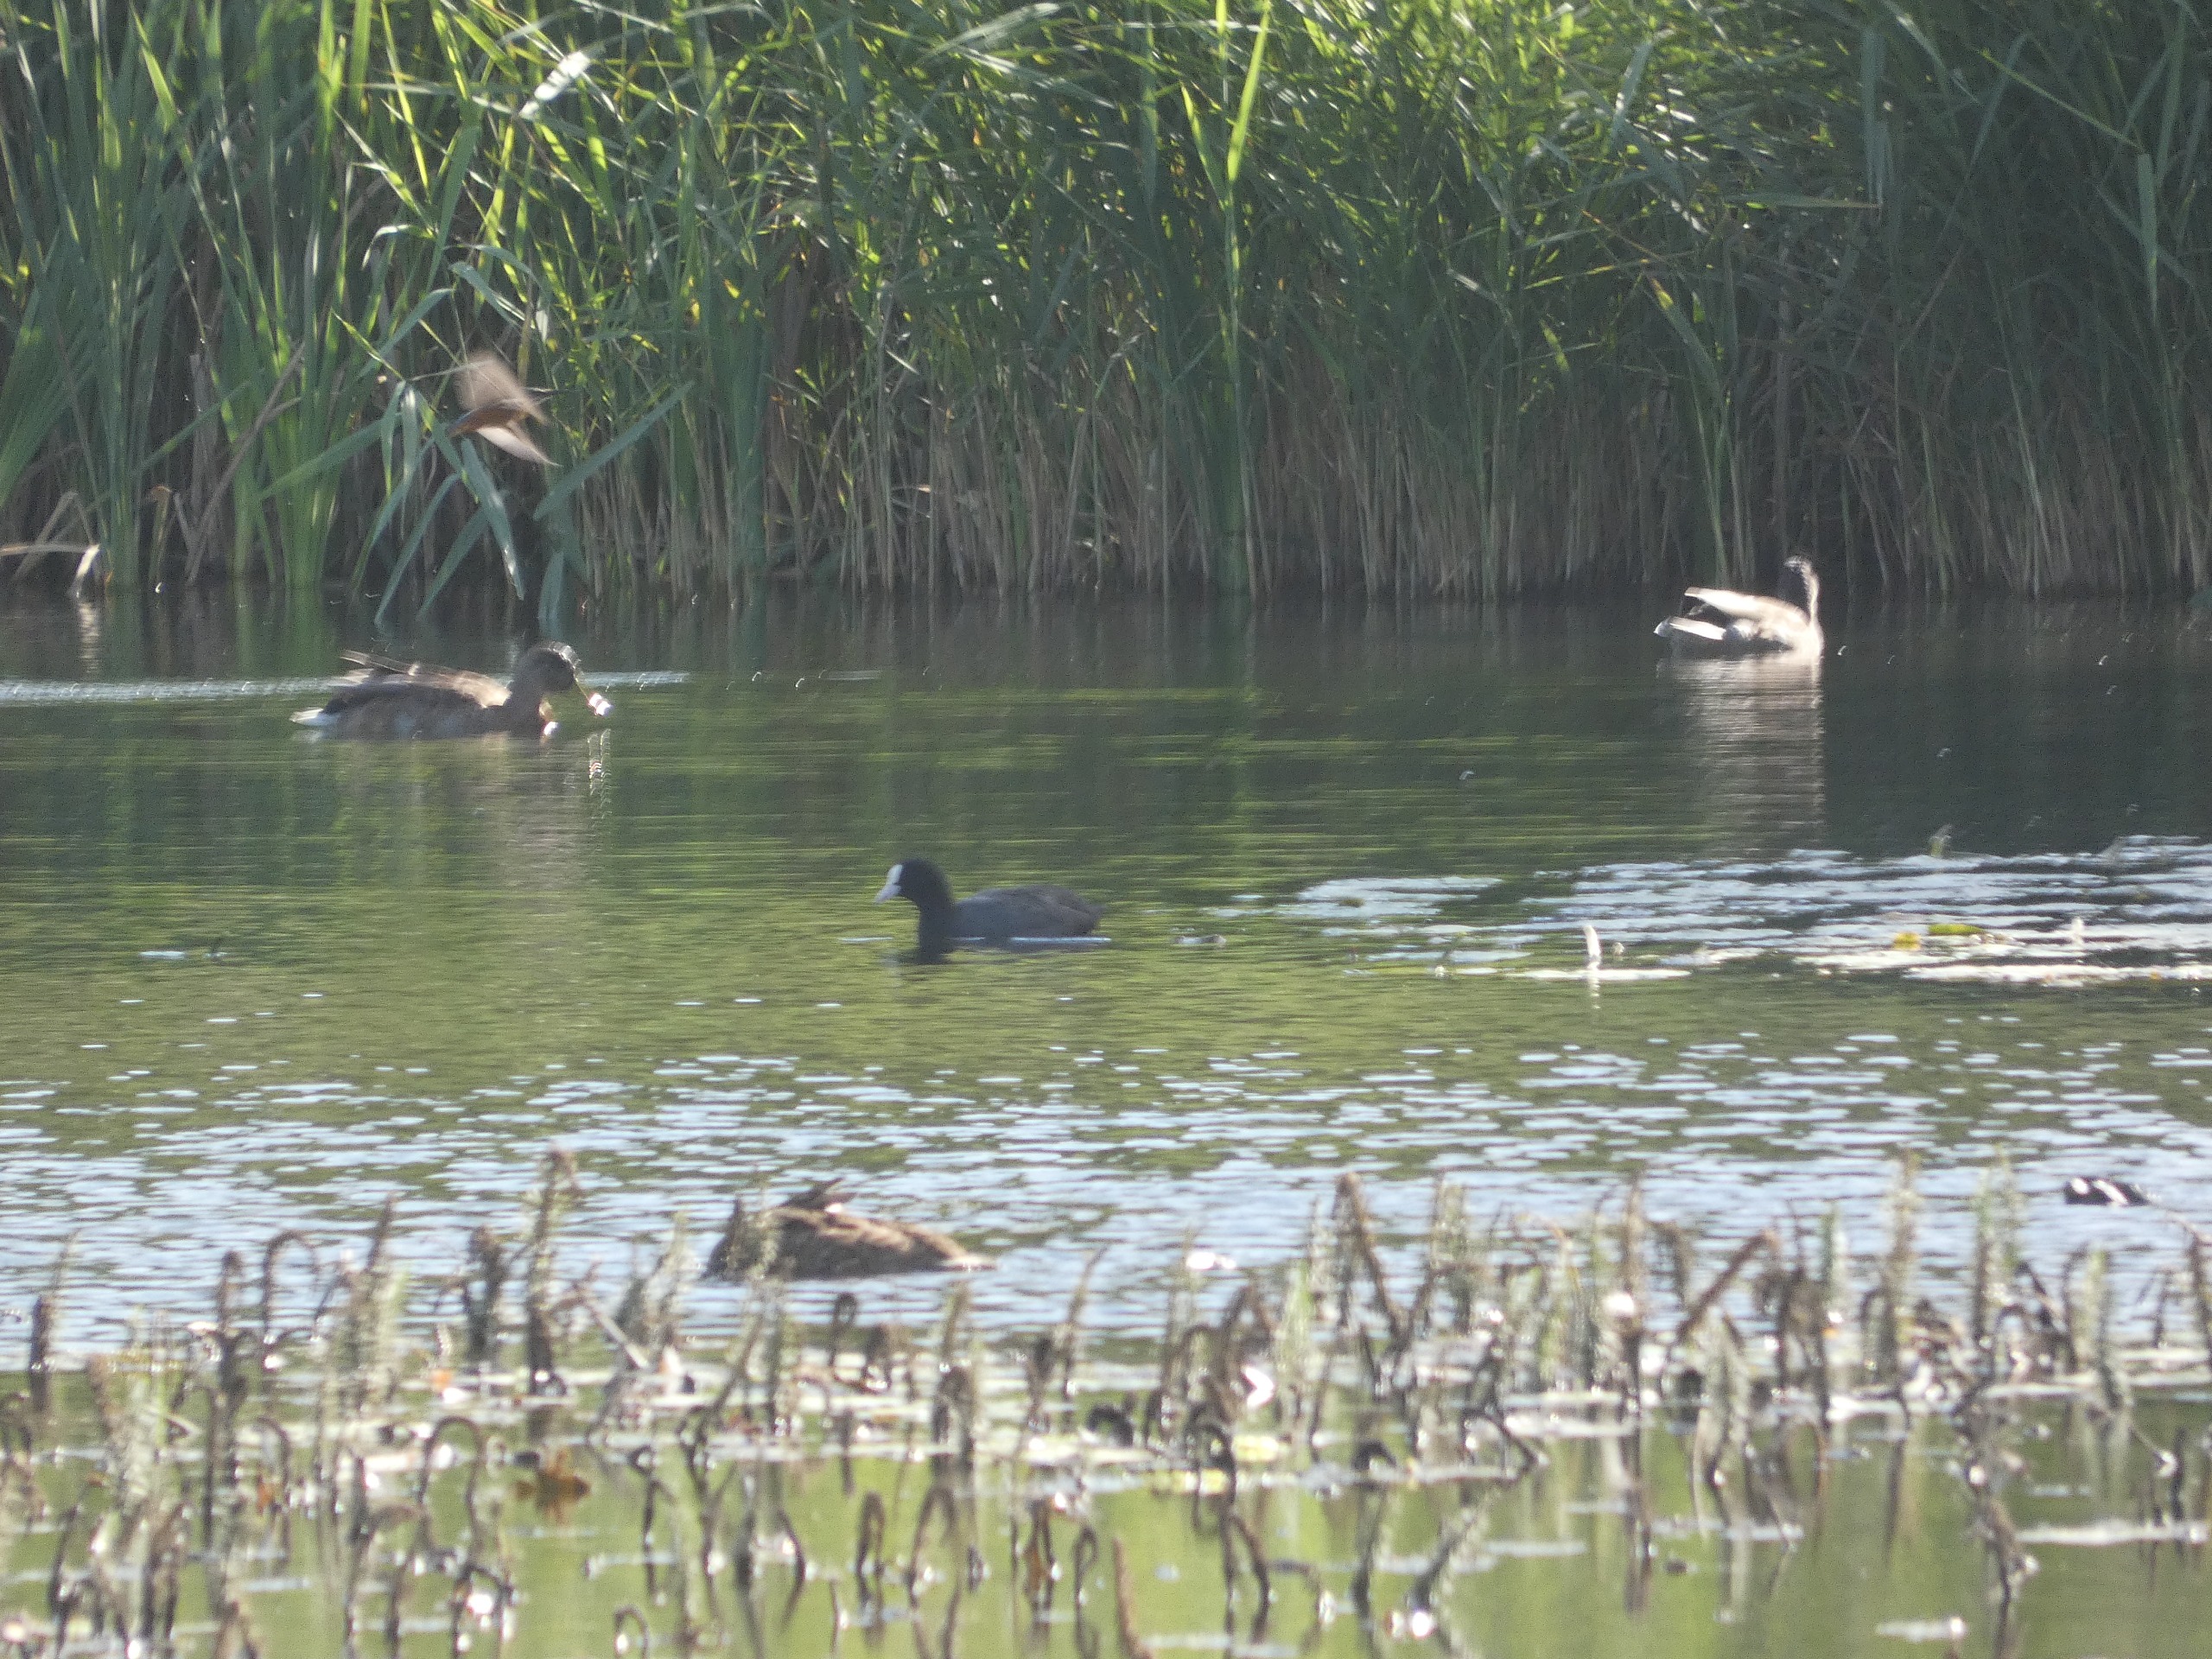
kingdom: Animalia
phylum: Chordata
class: Aves
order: Coraciiformes
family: Alcedinidae
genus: Alcedo
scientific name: Alcedo atthis
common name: Isfugl
